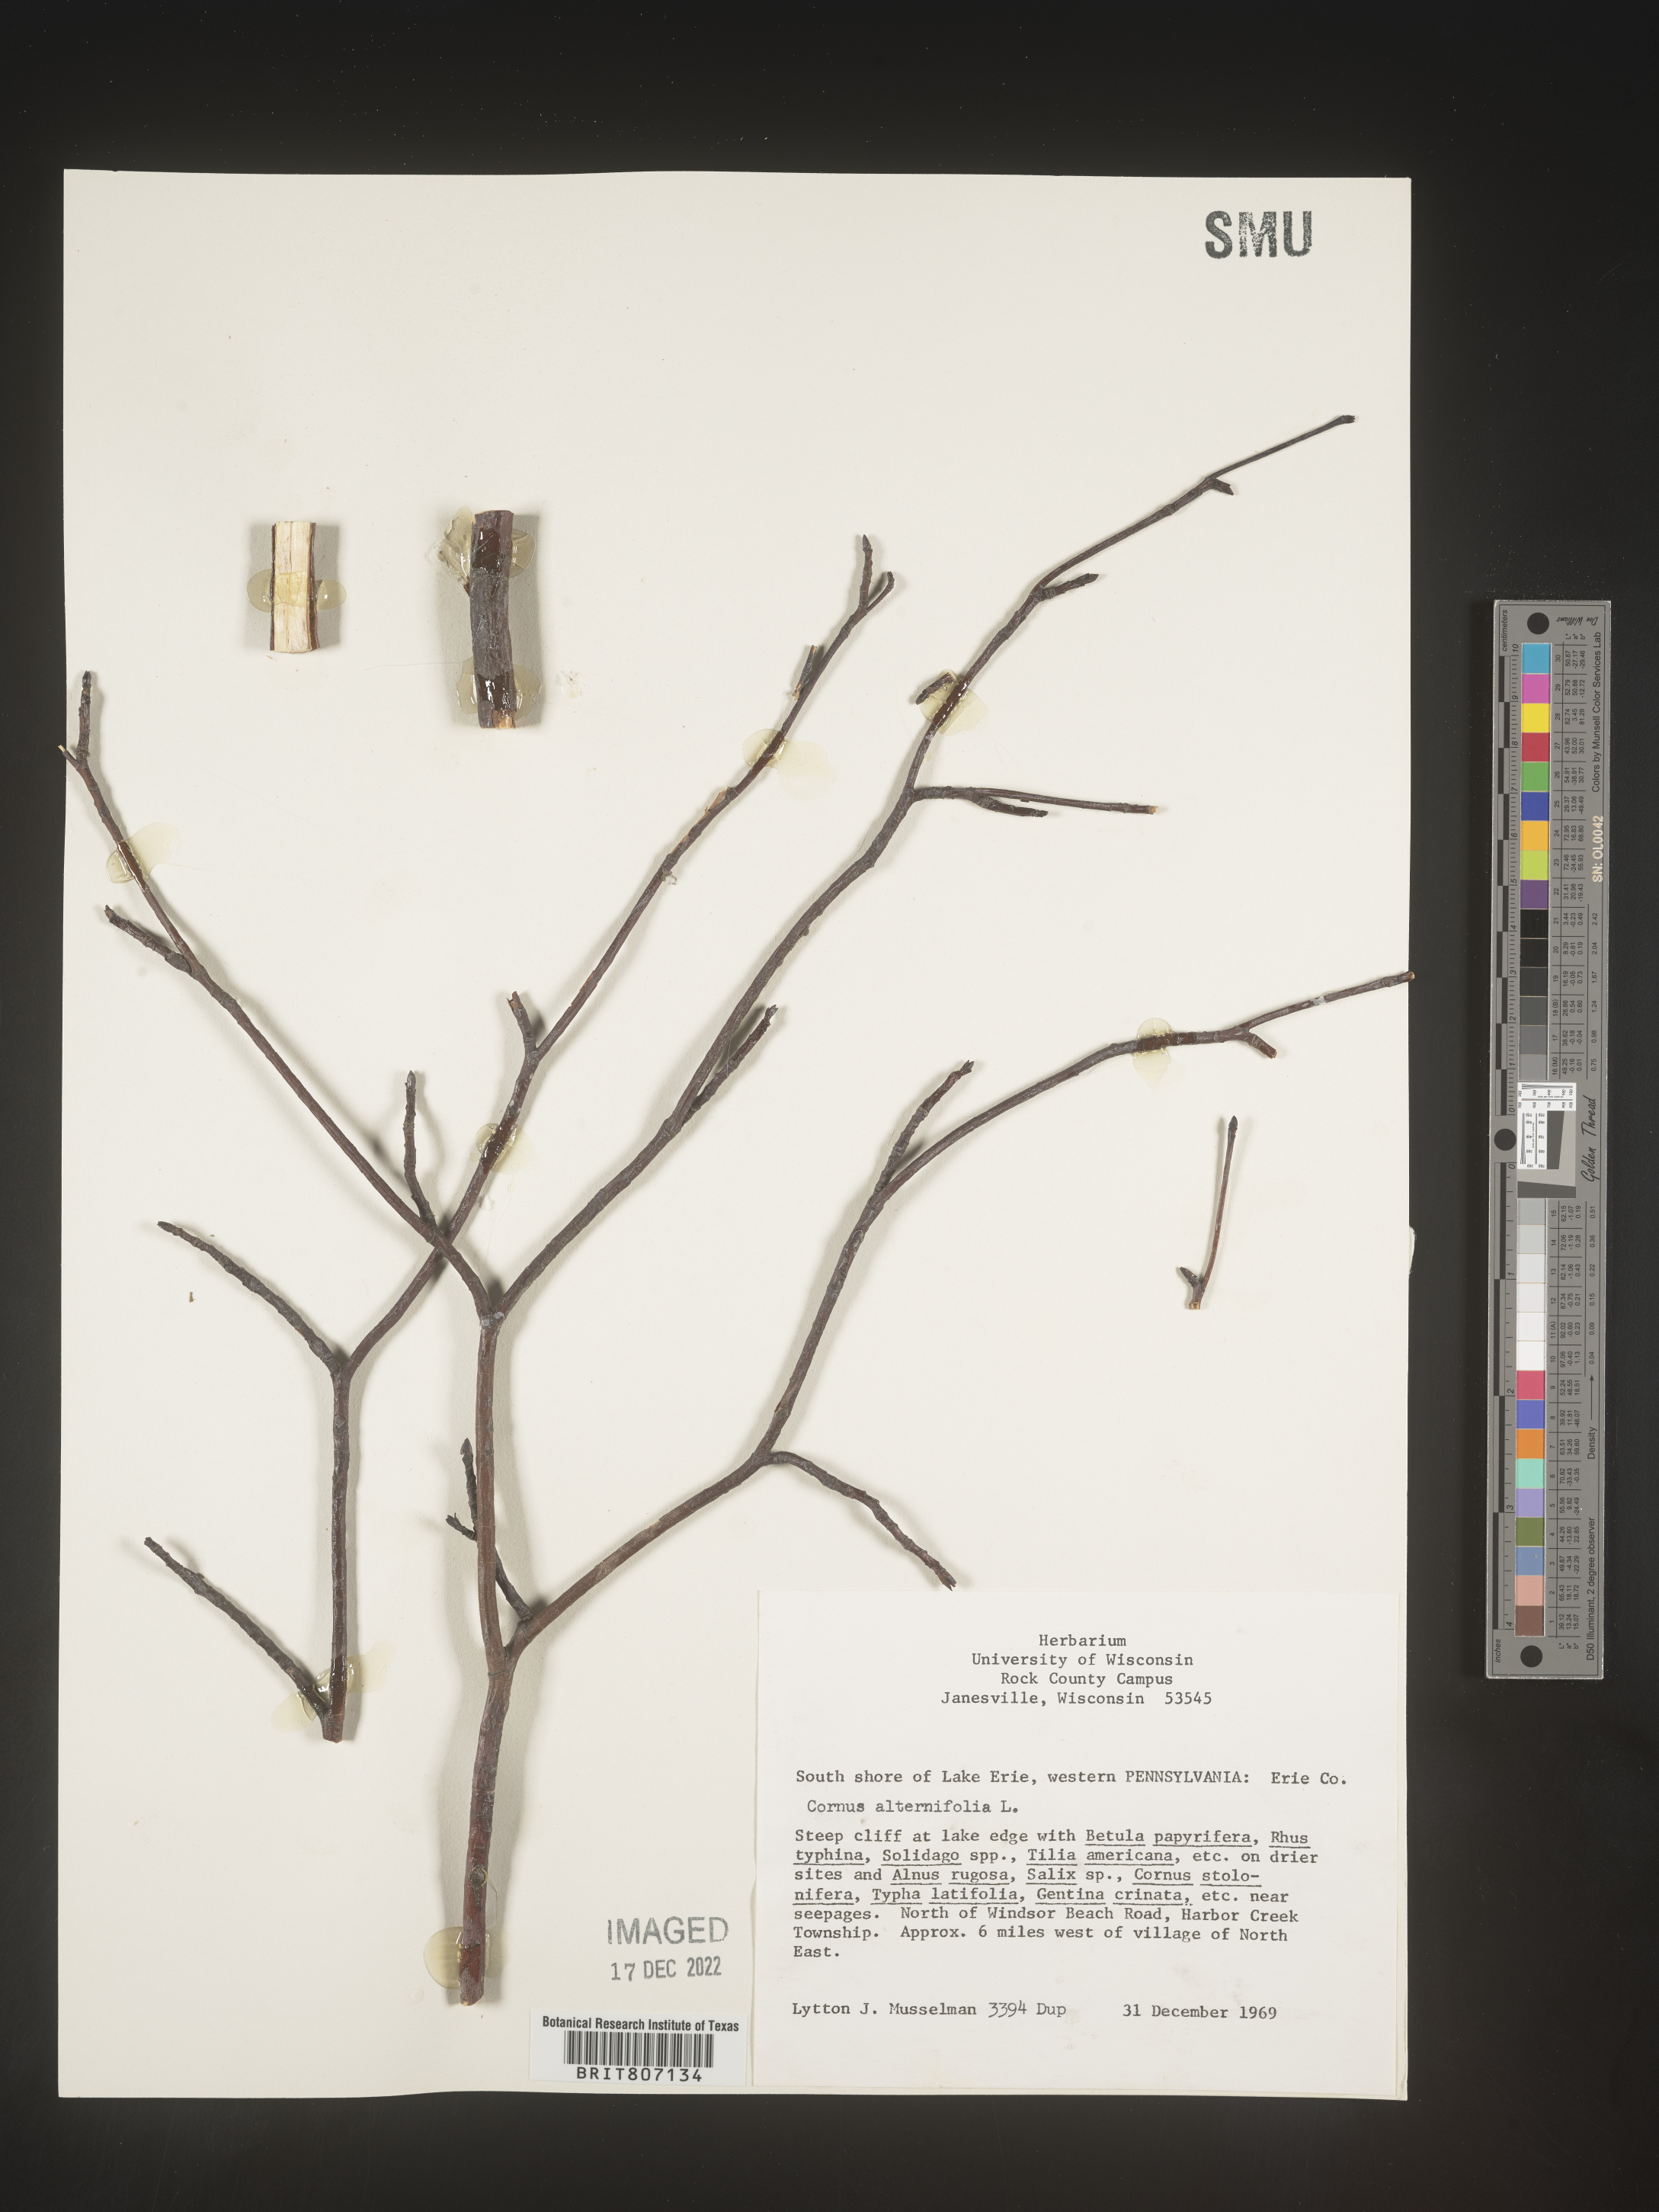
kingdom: Plantae
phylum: Tracheophyta
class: Magnoliopsida
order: Cornales
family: Cornaceae
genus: Cornus
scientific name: Cornus alternifolia
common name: Pagoda dogwood
